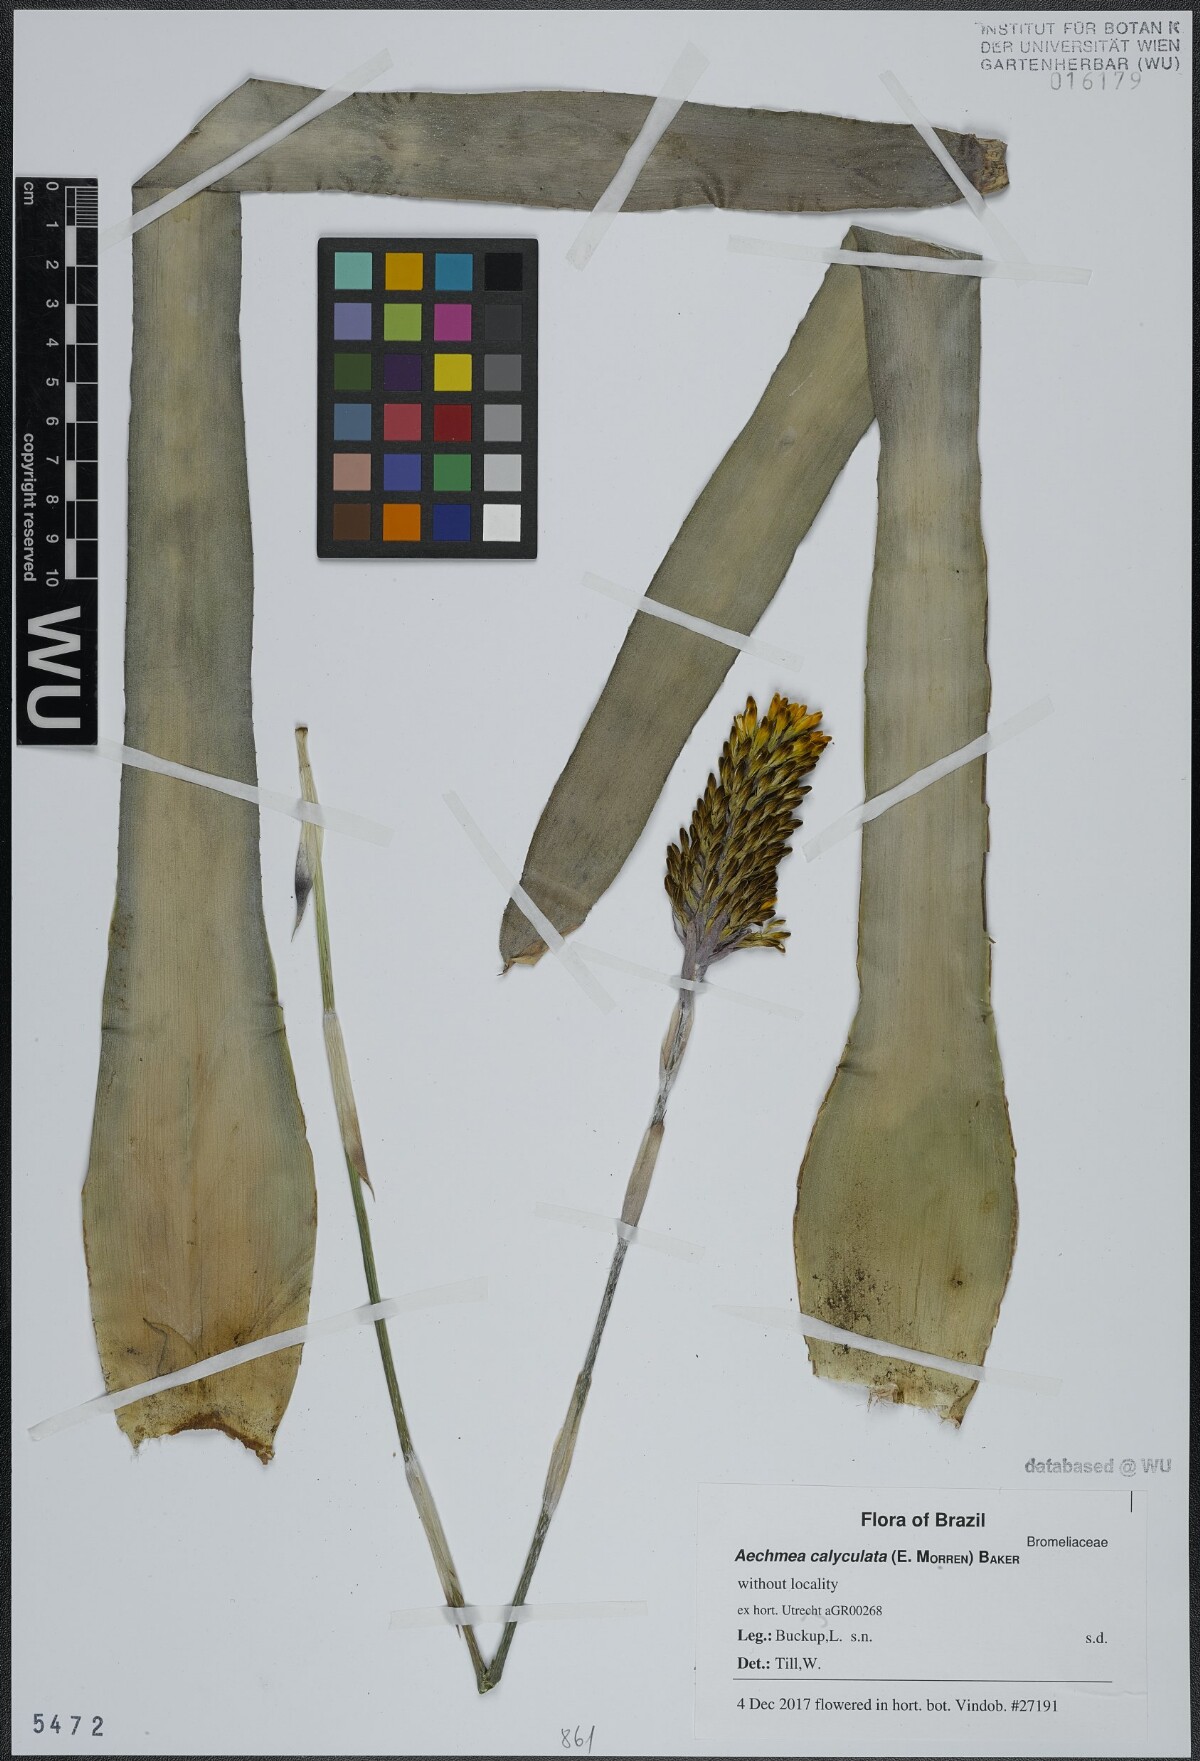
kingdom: Plantae
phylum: Tracheophyta
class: Liliopsida
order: Poales
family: Bromeliaceae
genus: Aechmea
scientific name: Aechmea calyculata
